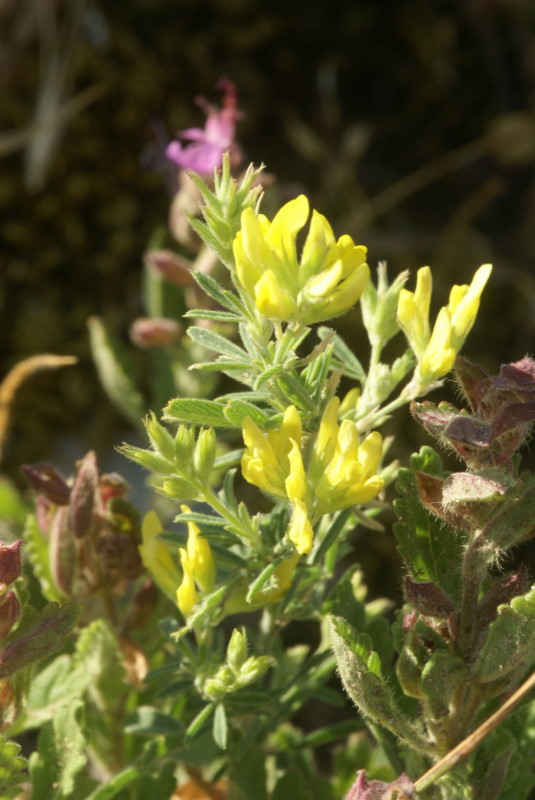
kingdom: Plantae
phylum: Tracheophyta
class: Magnoliopsida
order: Fabales
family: Fabaceae
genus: Medicago
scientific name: Medicago falcata
